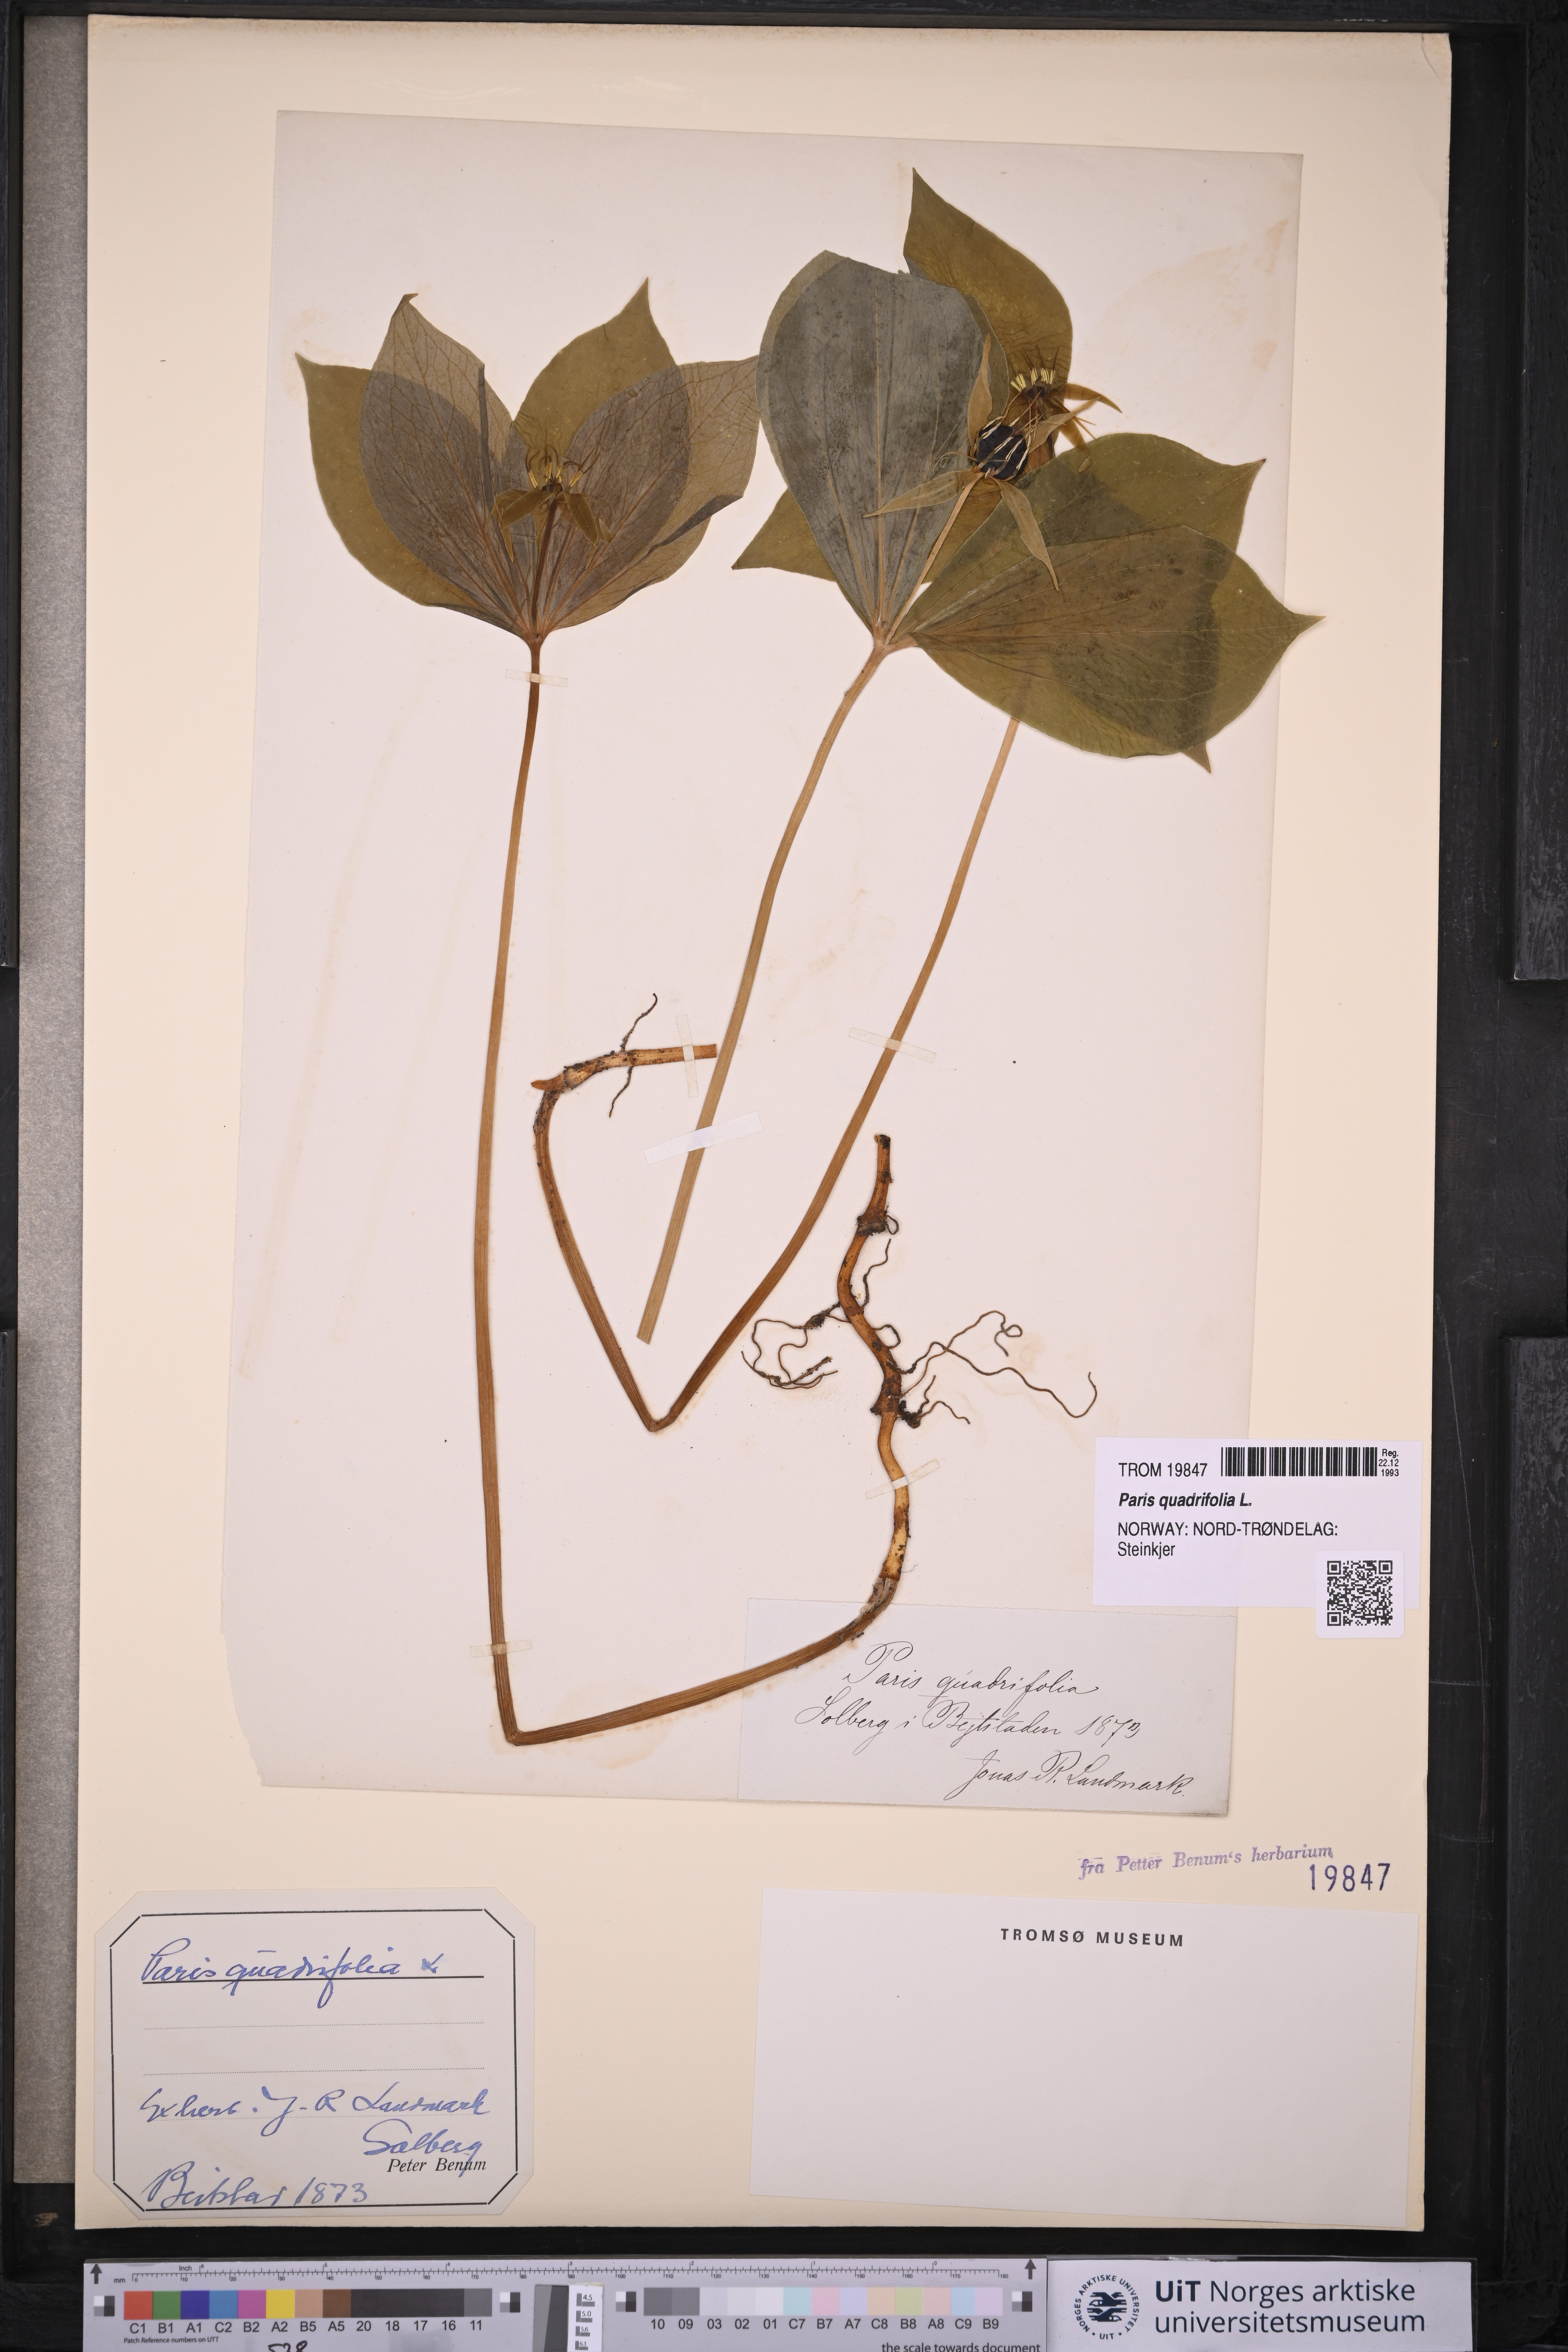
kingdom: Plantae
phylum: Tracheophyta
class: Liliopsida
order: Liliales
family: Melanthiaceae
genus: Paris
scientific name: Paris quadrifolia
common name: Herb-paris
